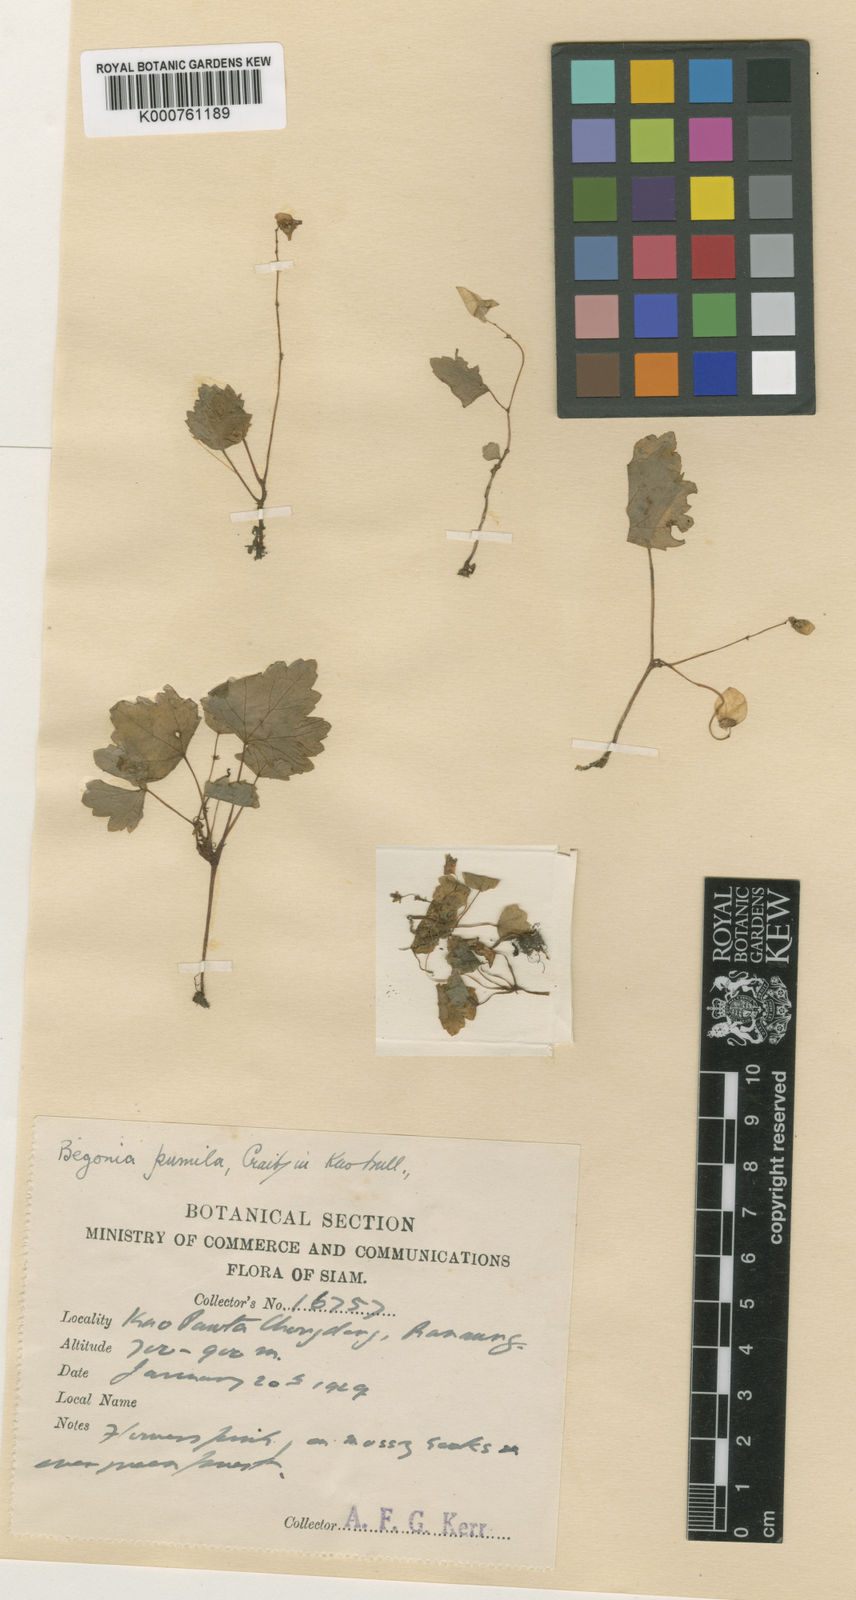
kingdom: Plantae
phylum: Tracheophyta
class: Magnoliopsida
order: Cucurbitales
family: Begoniaceae
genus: Begonia
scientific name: Begonia pumila
